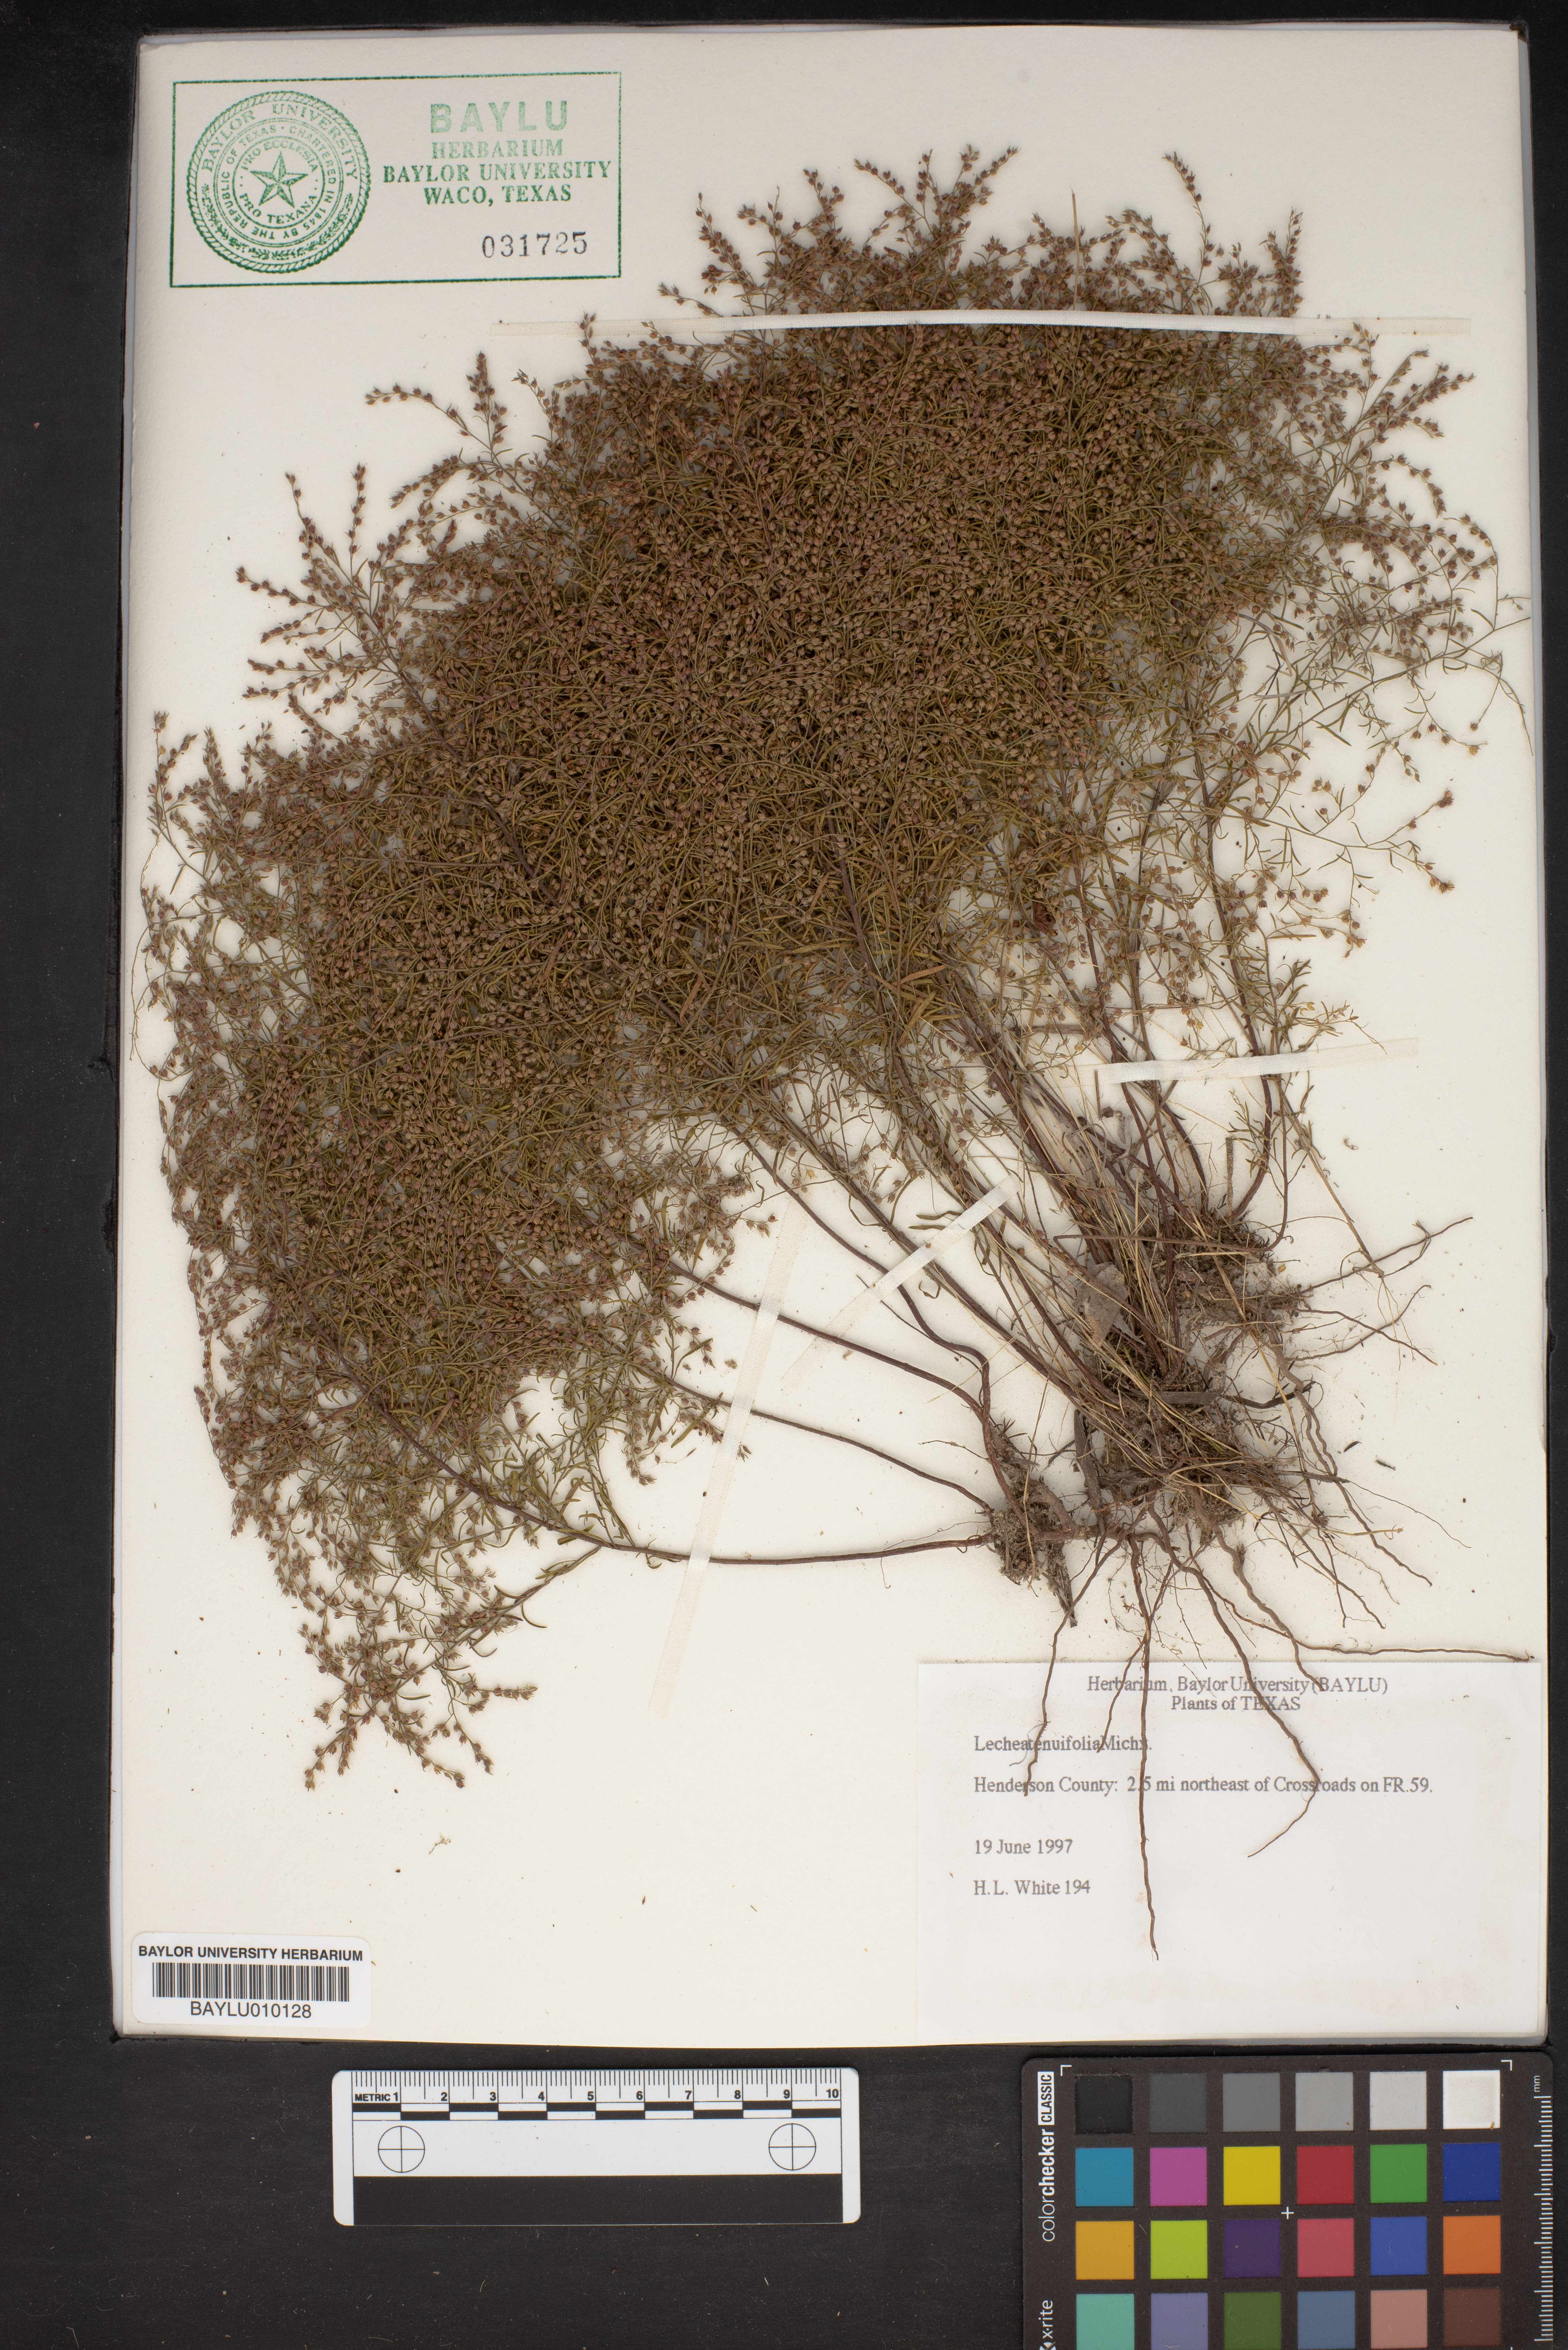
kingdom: Plantae
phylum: Tracheophyta
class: Magnoliopsida
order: Malvales
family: Cistaceae
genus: Lechea
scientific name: Lechea tenuifolia
